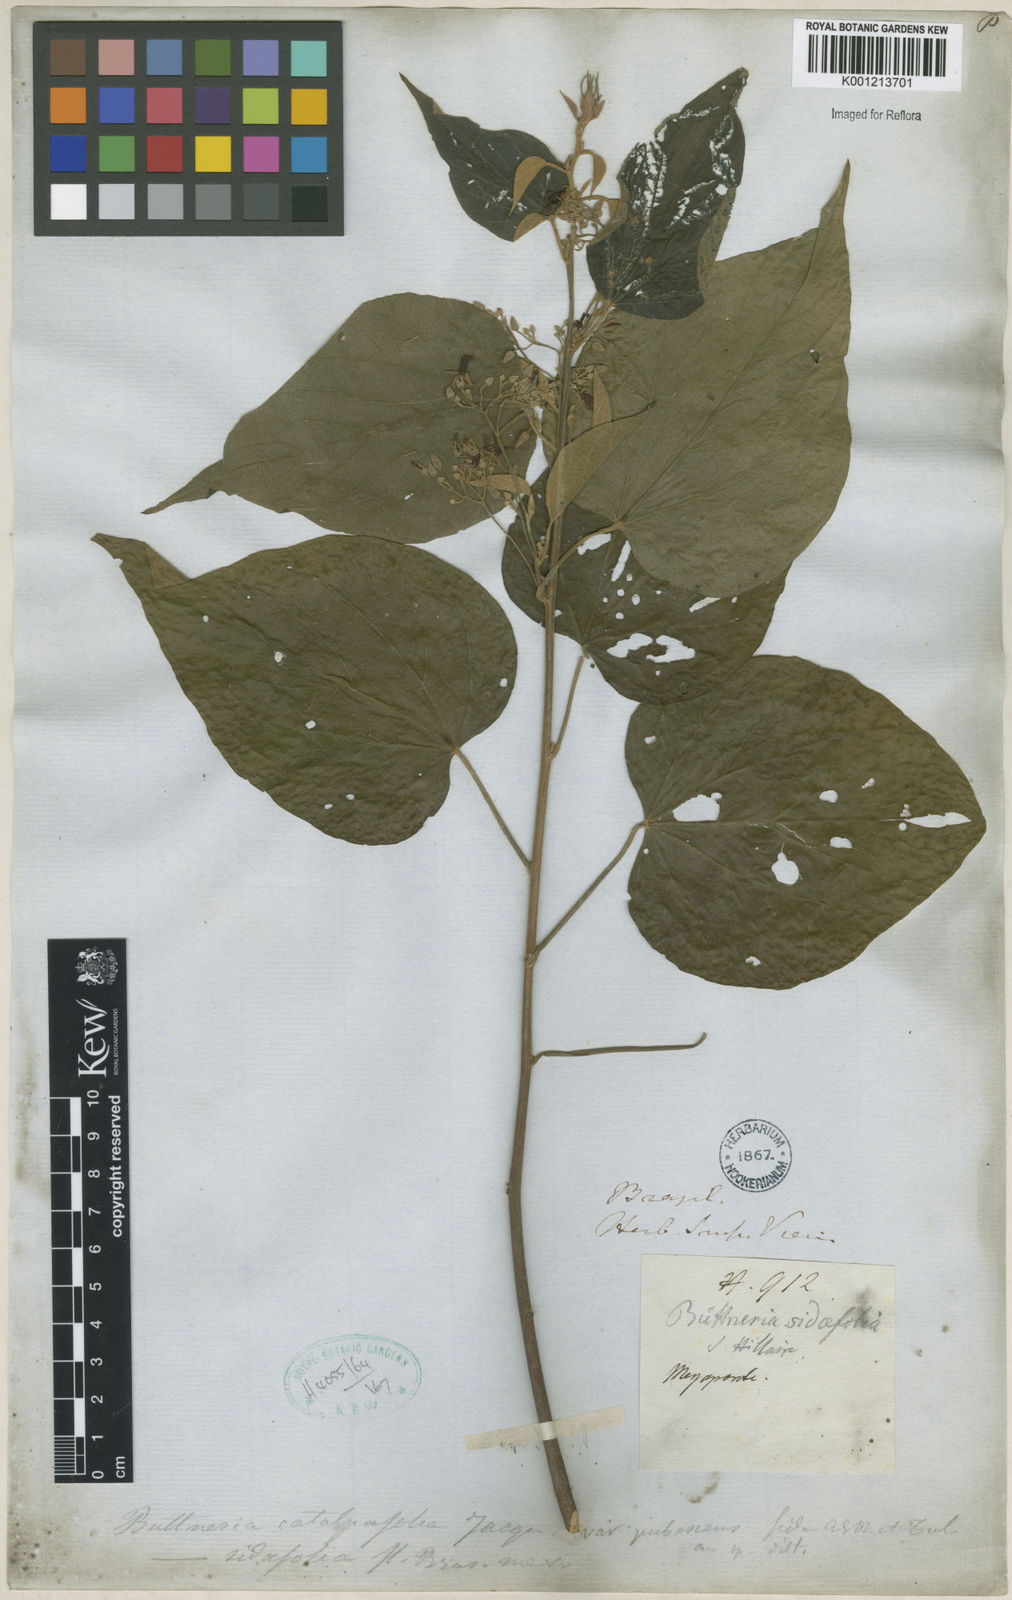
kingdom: Plantae
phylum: Tracheophyta
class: Magnoliopsida
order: Malvales
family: Malvaceae
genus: Byttneria
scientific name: Byttneria catalpifolia
